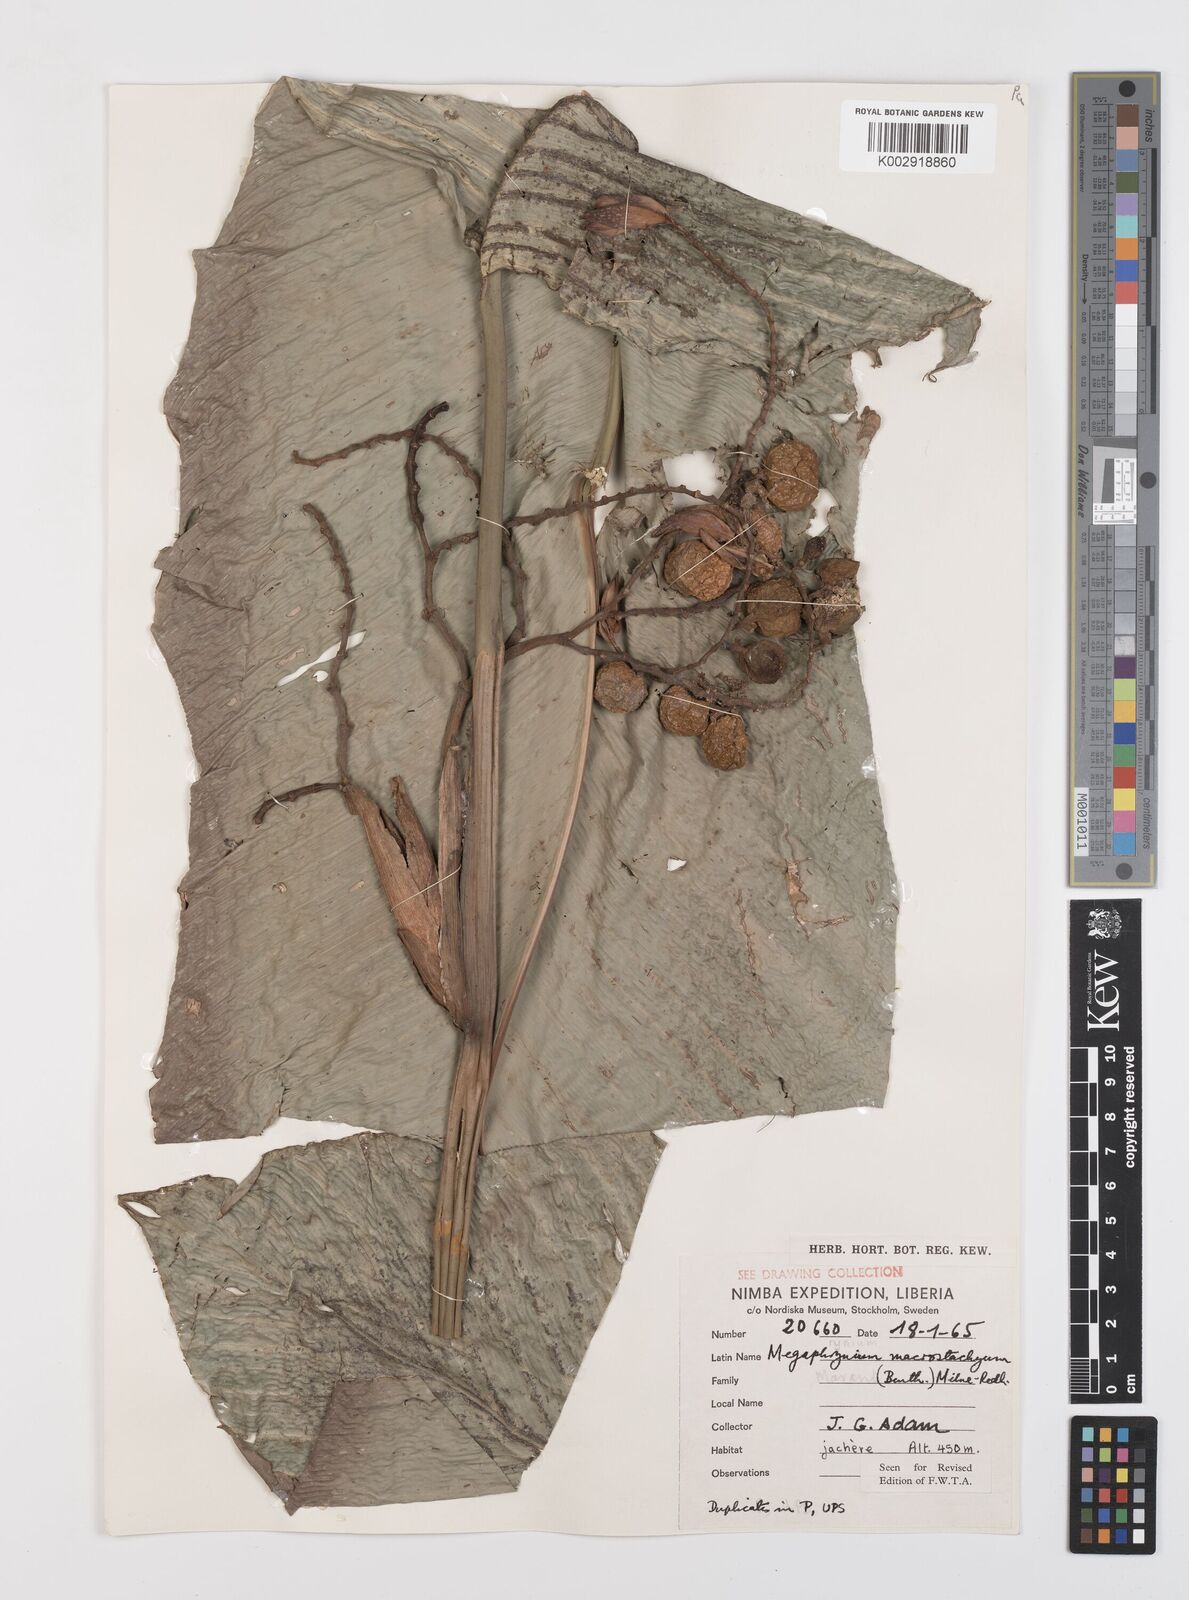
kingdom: Plantae
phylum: Tracheophyta
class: Liliopsida
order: Zingiberales
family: Marantaceae
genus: Megaphrynium
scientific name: Megaphrynium macrostachyum
